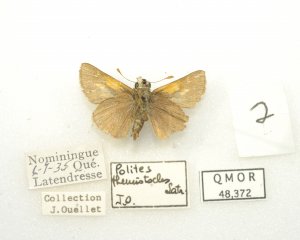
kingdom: Animalia
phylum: Arthropoda
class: Insecta
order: Lepidoptera
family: Hesperiidae
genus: Polites
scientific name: Polites themistocles
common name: Tawny-edged Skipper
